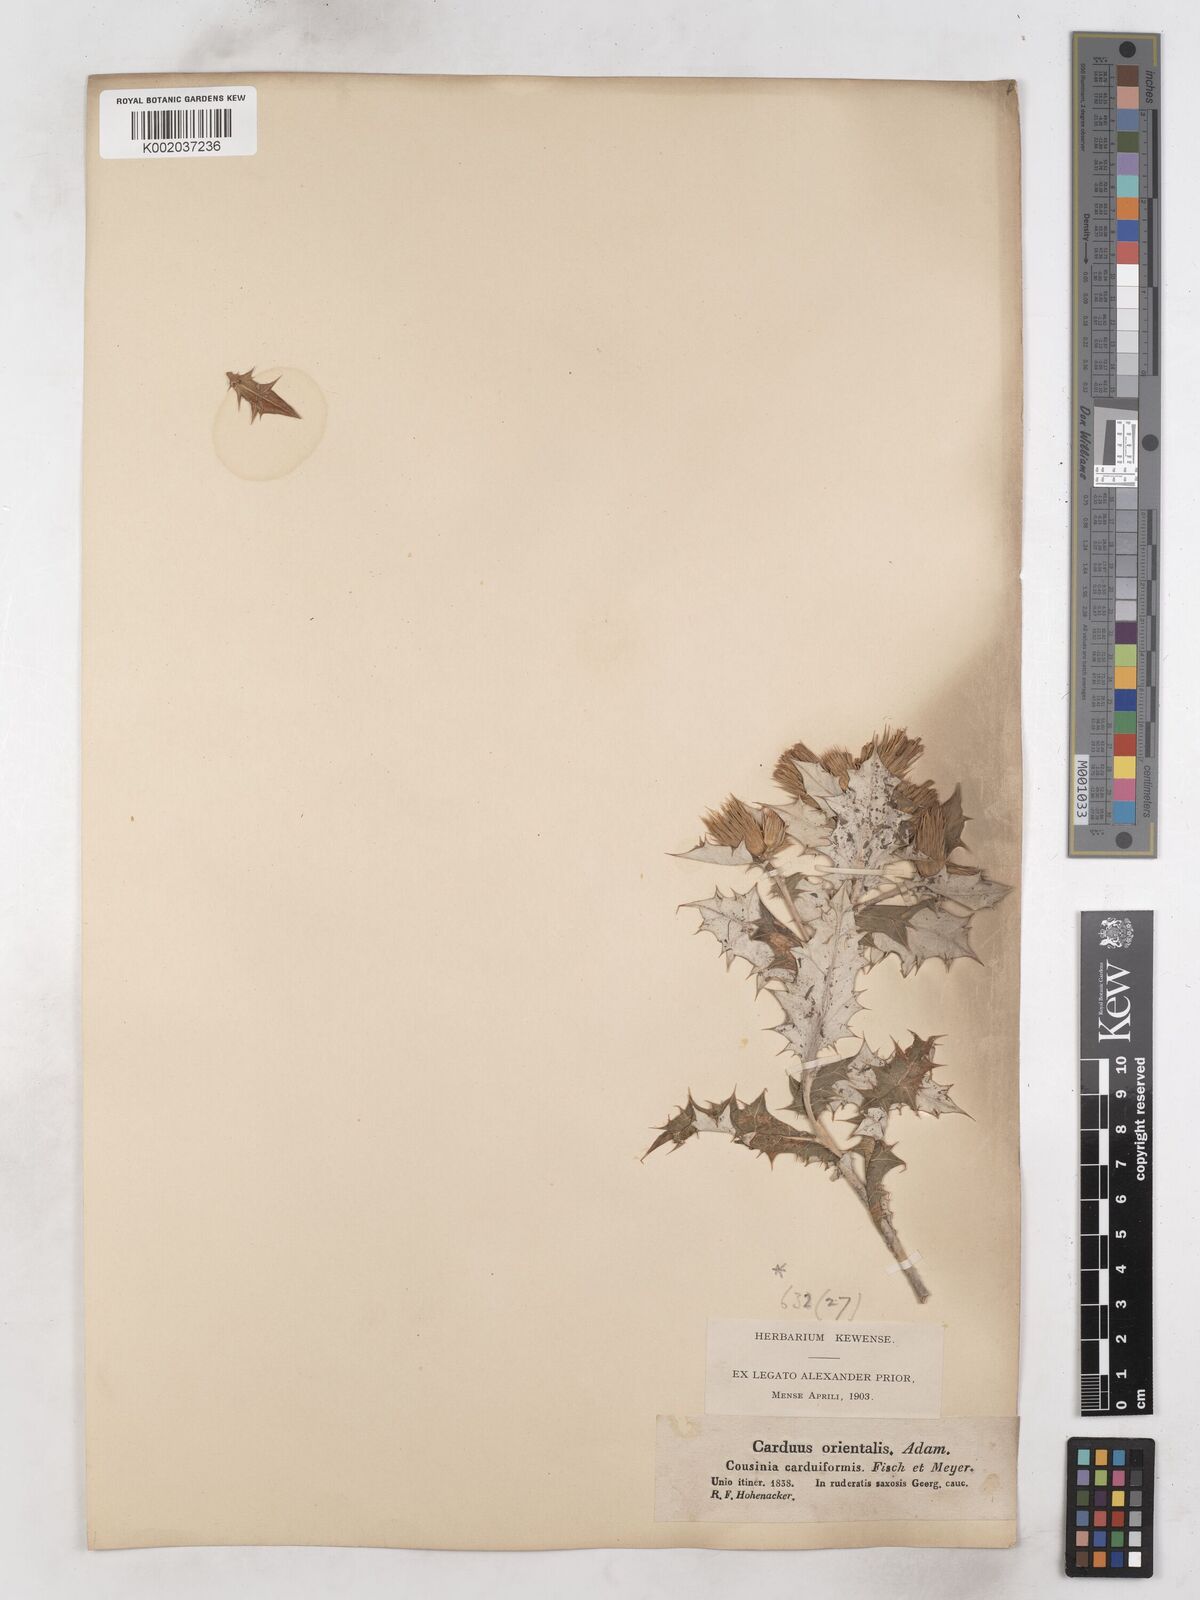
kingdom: Plantae
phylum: Tracheophyta
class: Magnoliopsida
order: Asterales
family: Asteraceae
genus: Cousinia
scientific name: Cousinia
